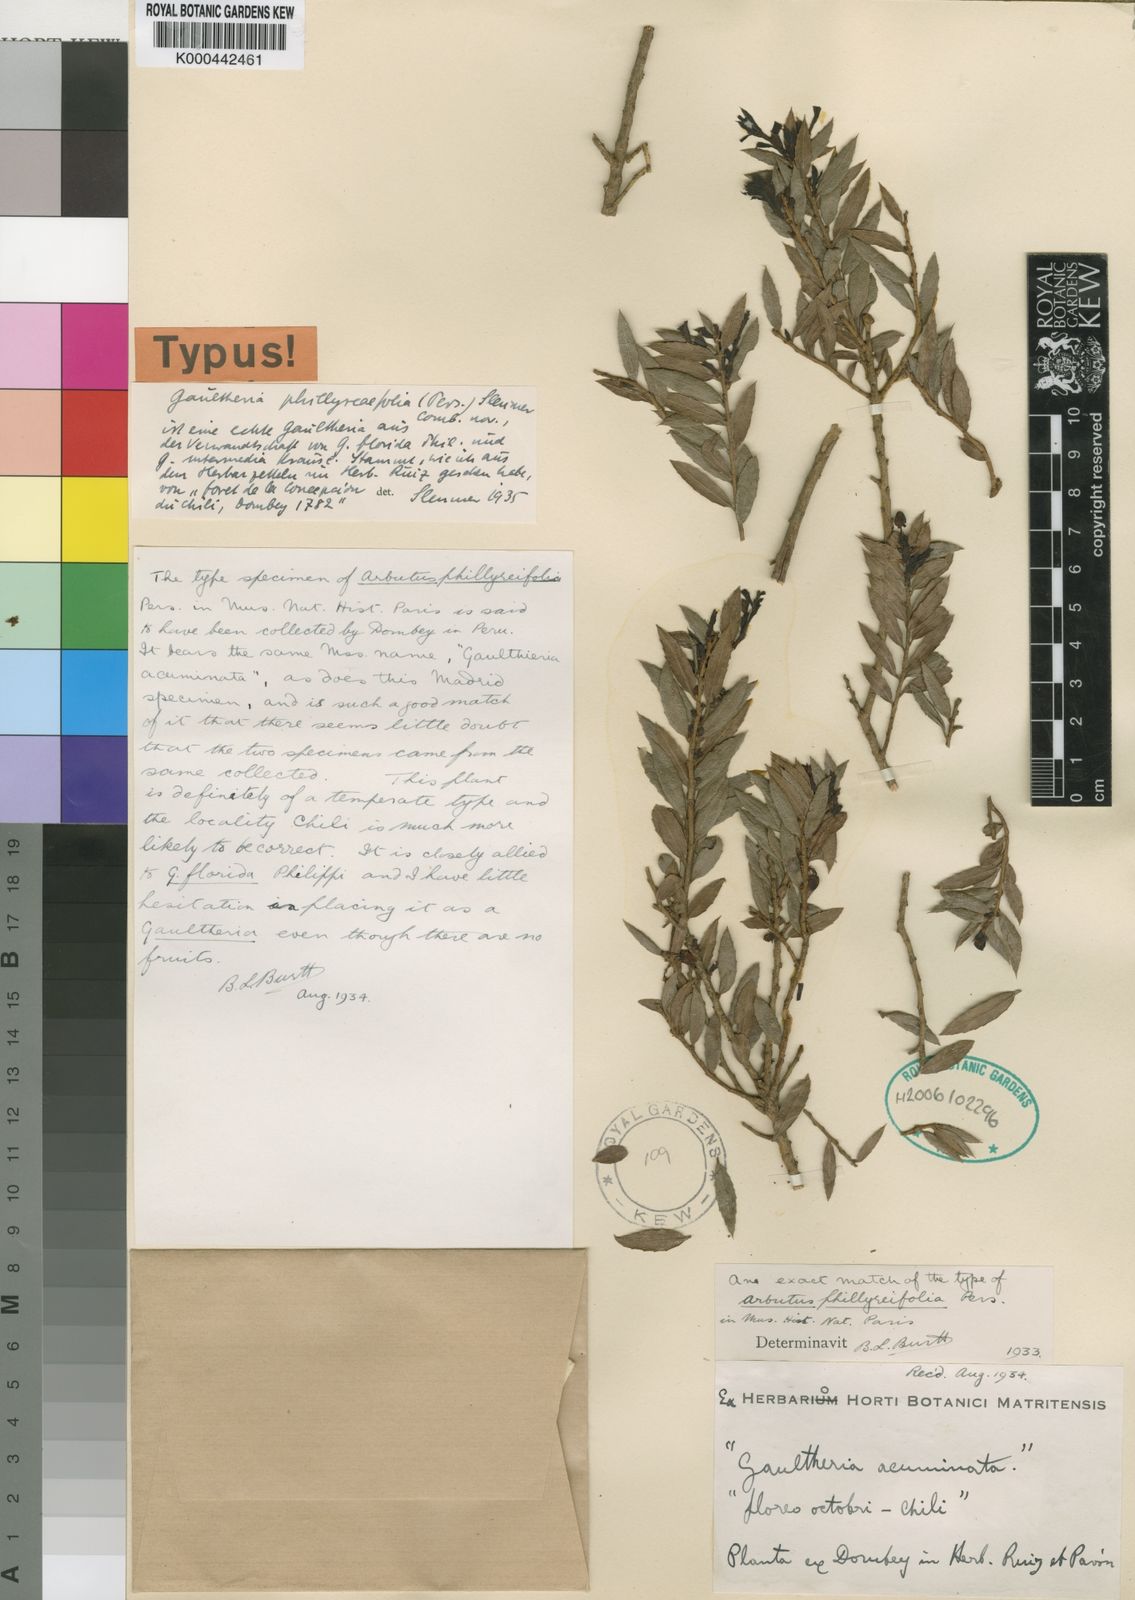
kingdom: Plantae
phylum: Tracheophyta
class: Magnoliopsida
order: Ericales
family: Ericaceae
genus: Gaultheria
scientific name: Gaultheria phillyreifolia
